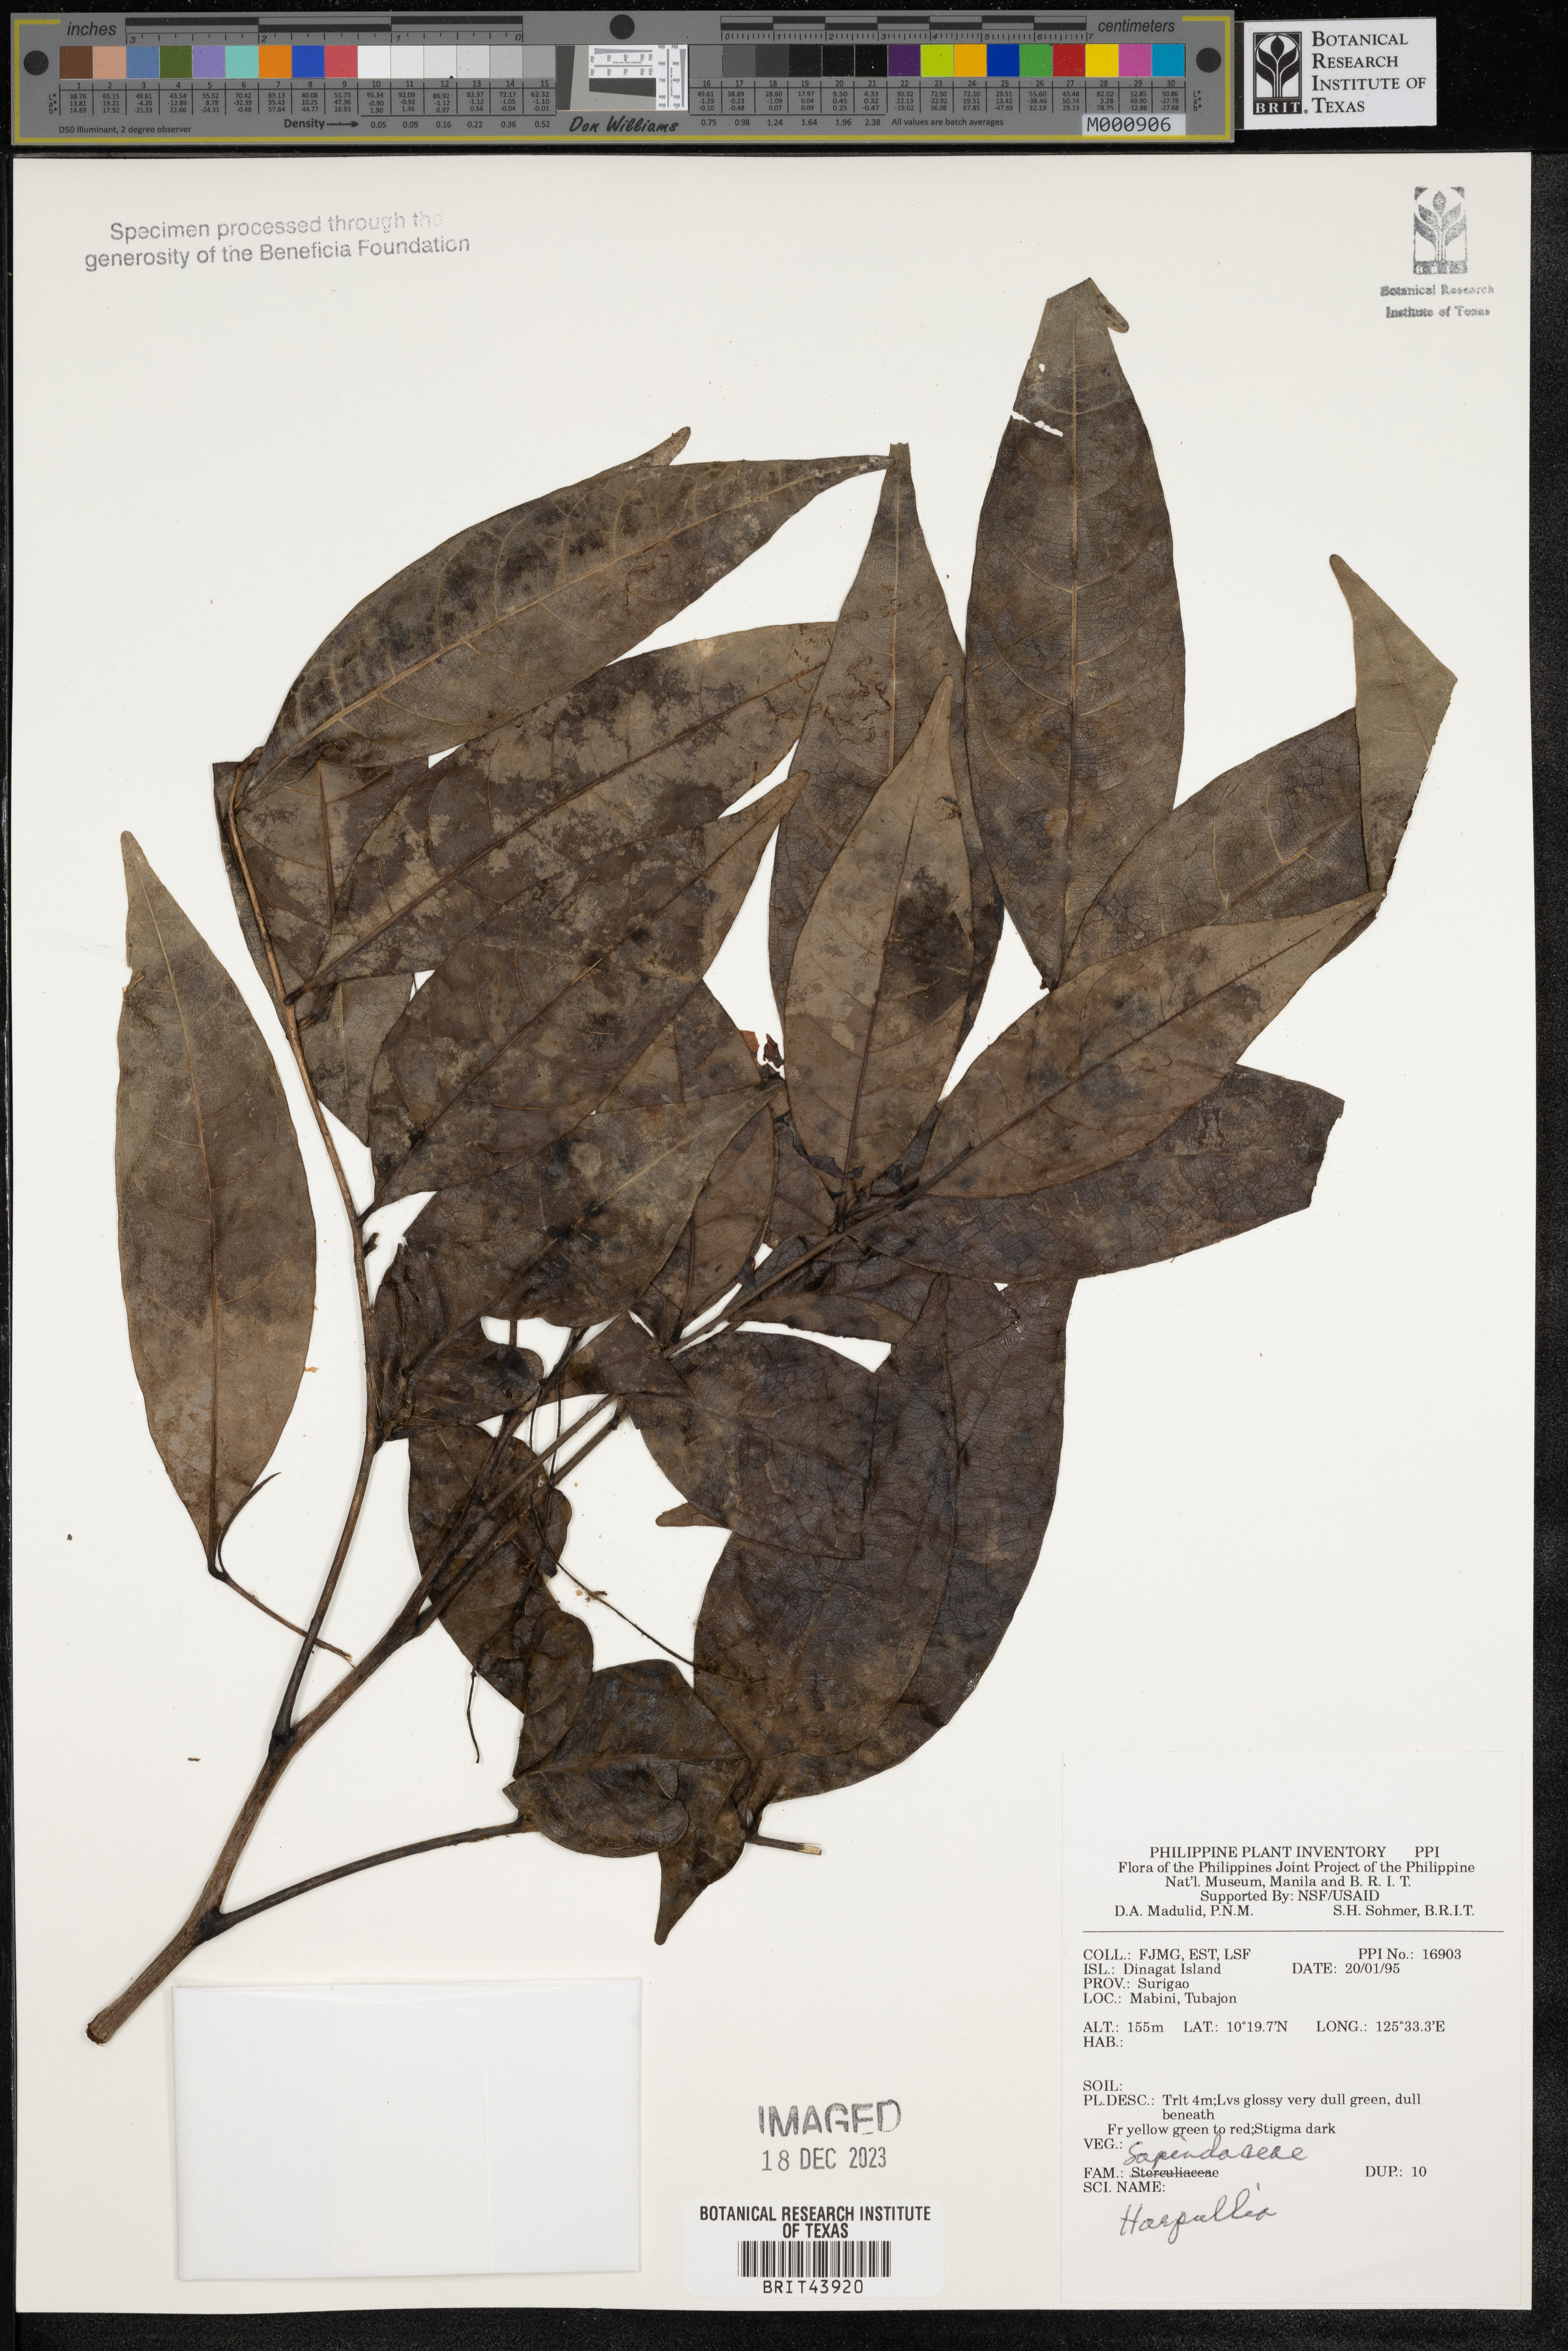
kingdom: Plantae
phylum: Tracheophyta
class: Magnoliopsida
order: Sapindales
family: Sapindaceae
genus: Harpullia
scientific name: Harpullia
